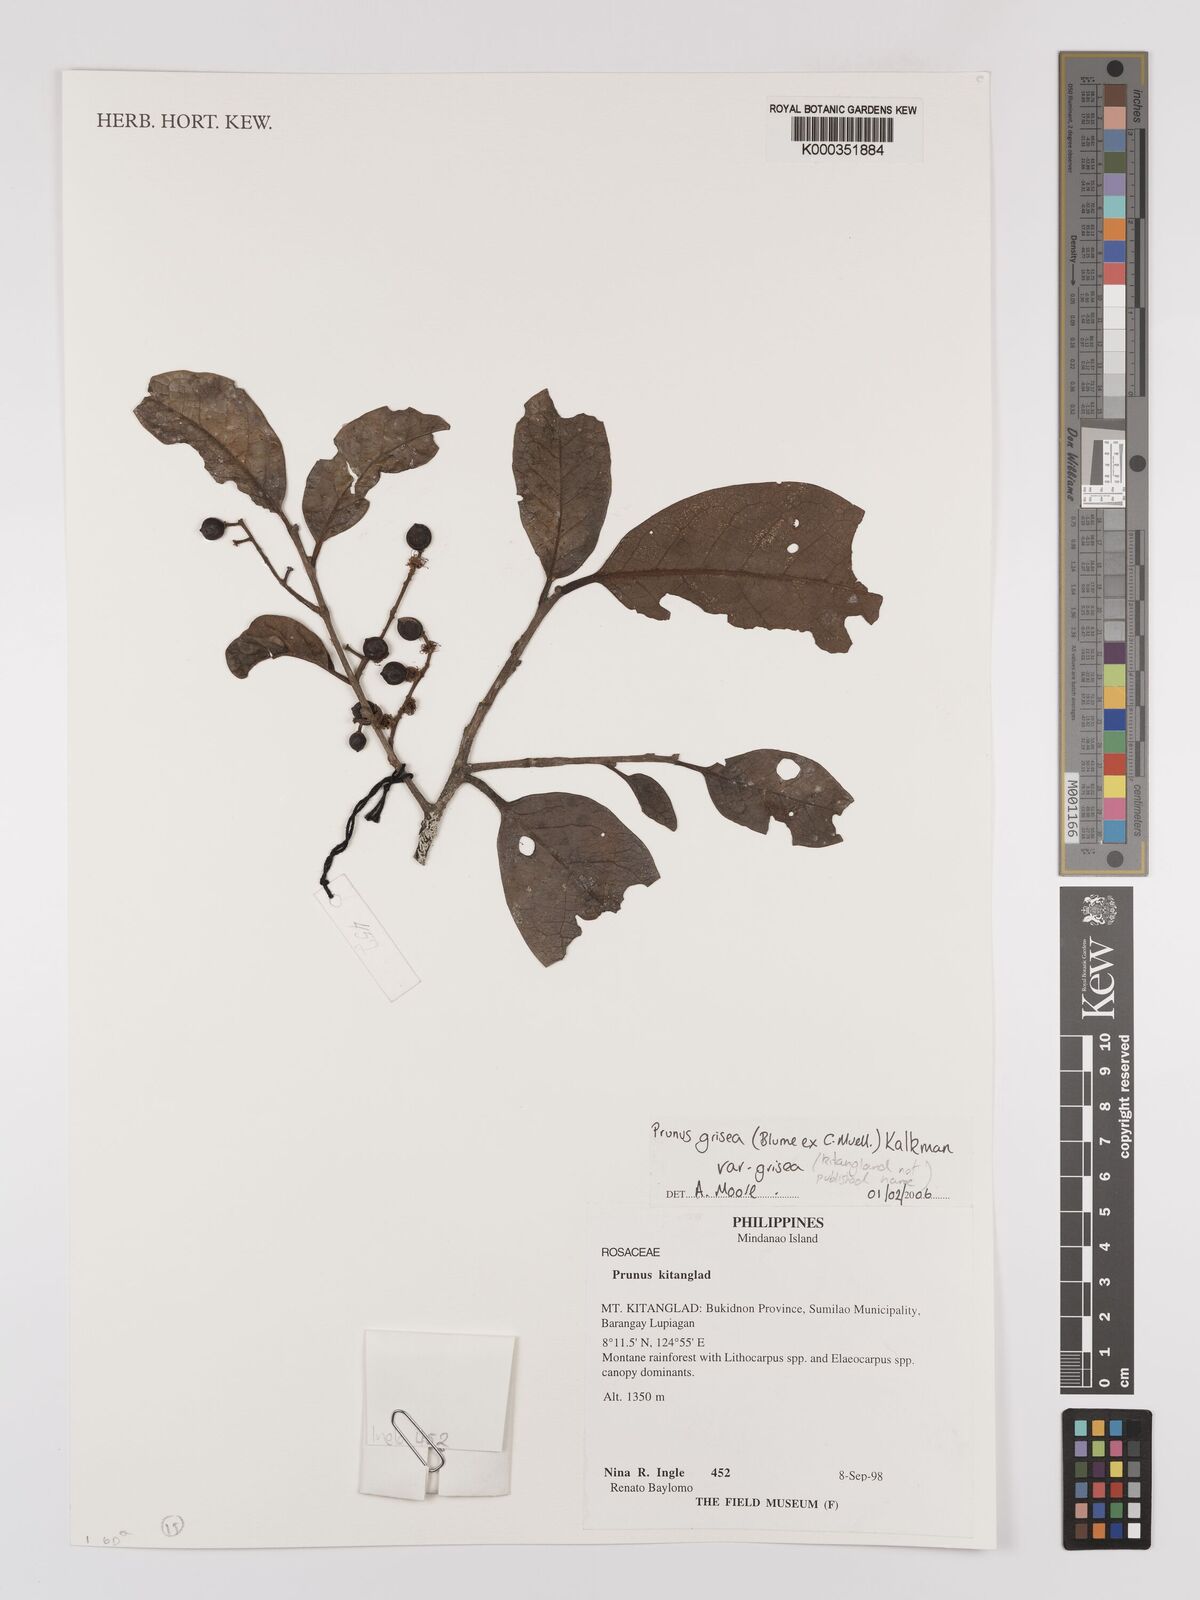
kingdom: Plantae
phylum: Tracheophyta
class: Magnoliopsida
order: Rosales
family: Rosaceae
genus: Prunus
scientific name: Prunus grisea
